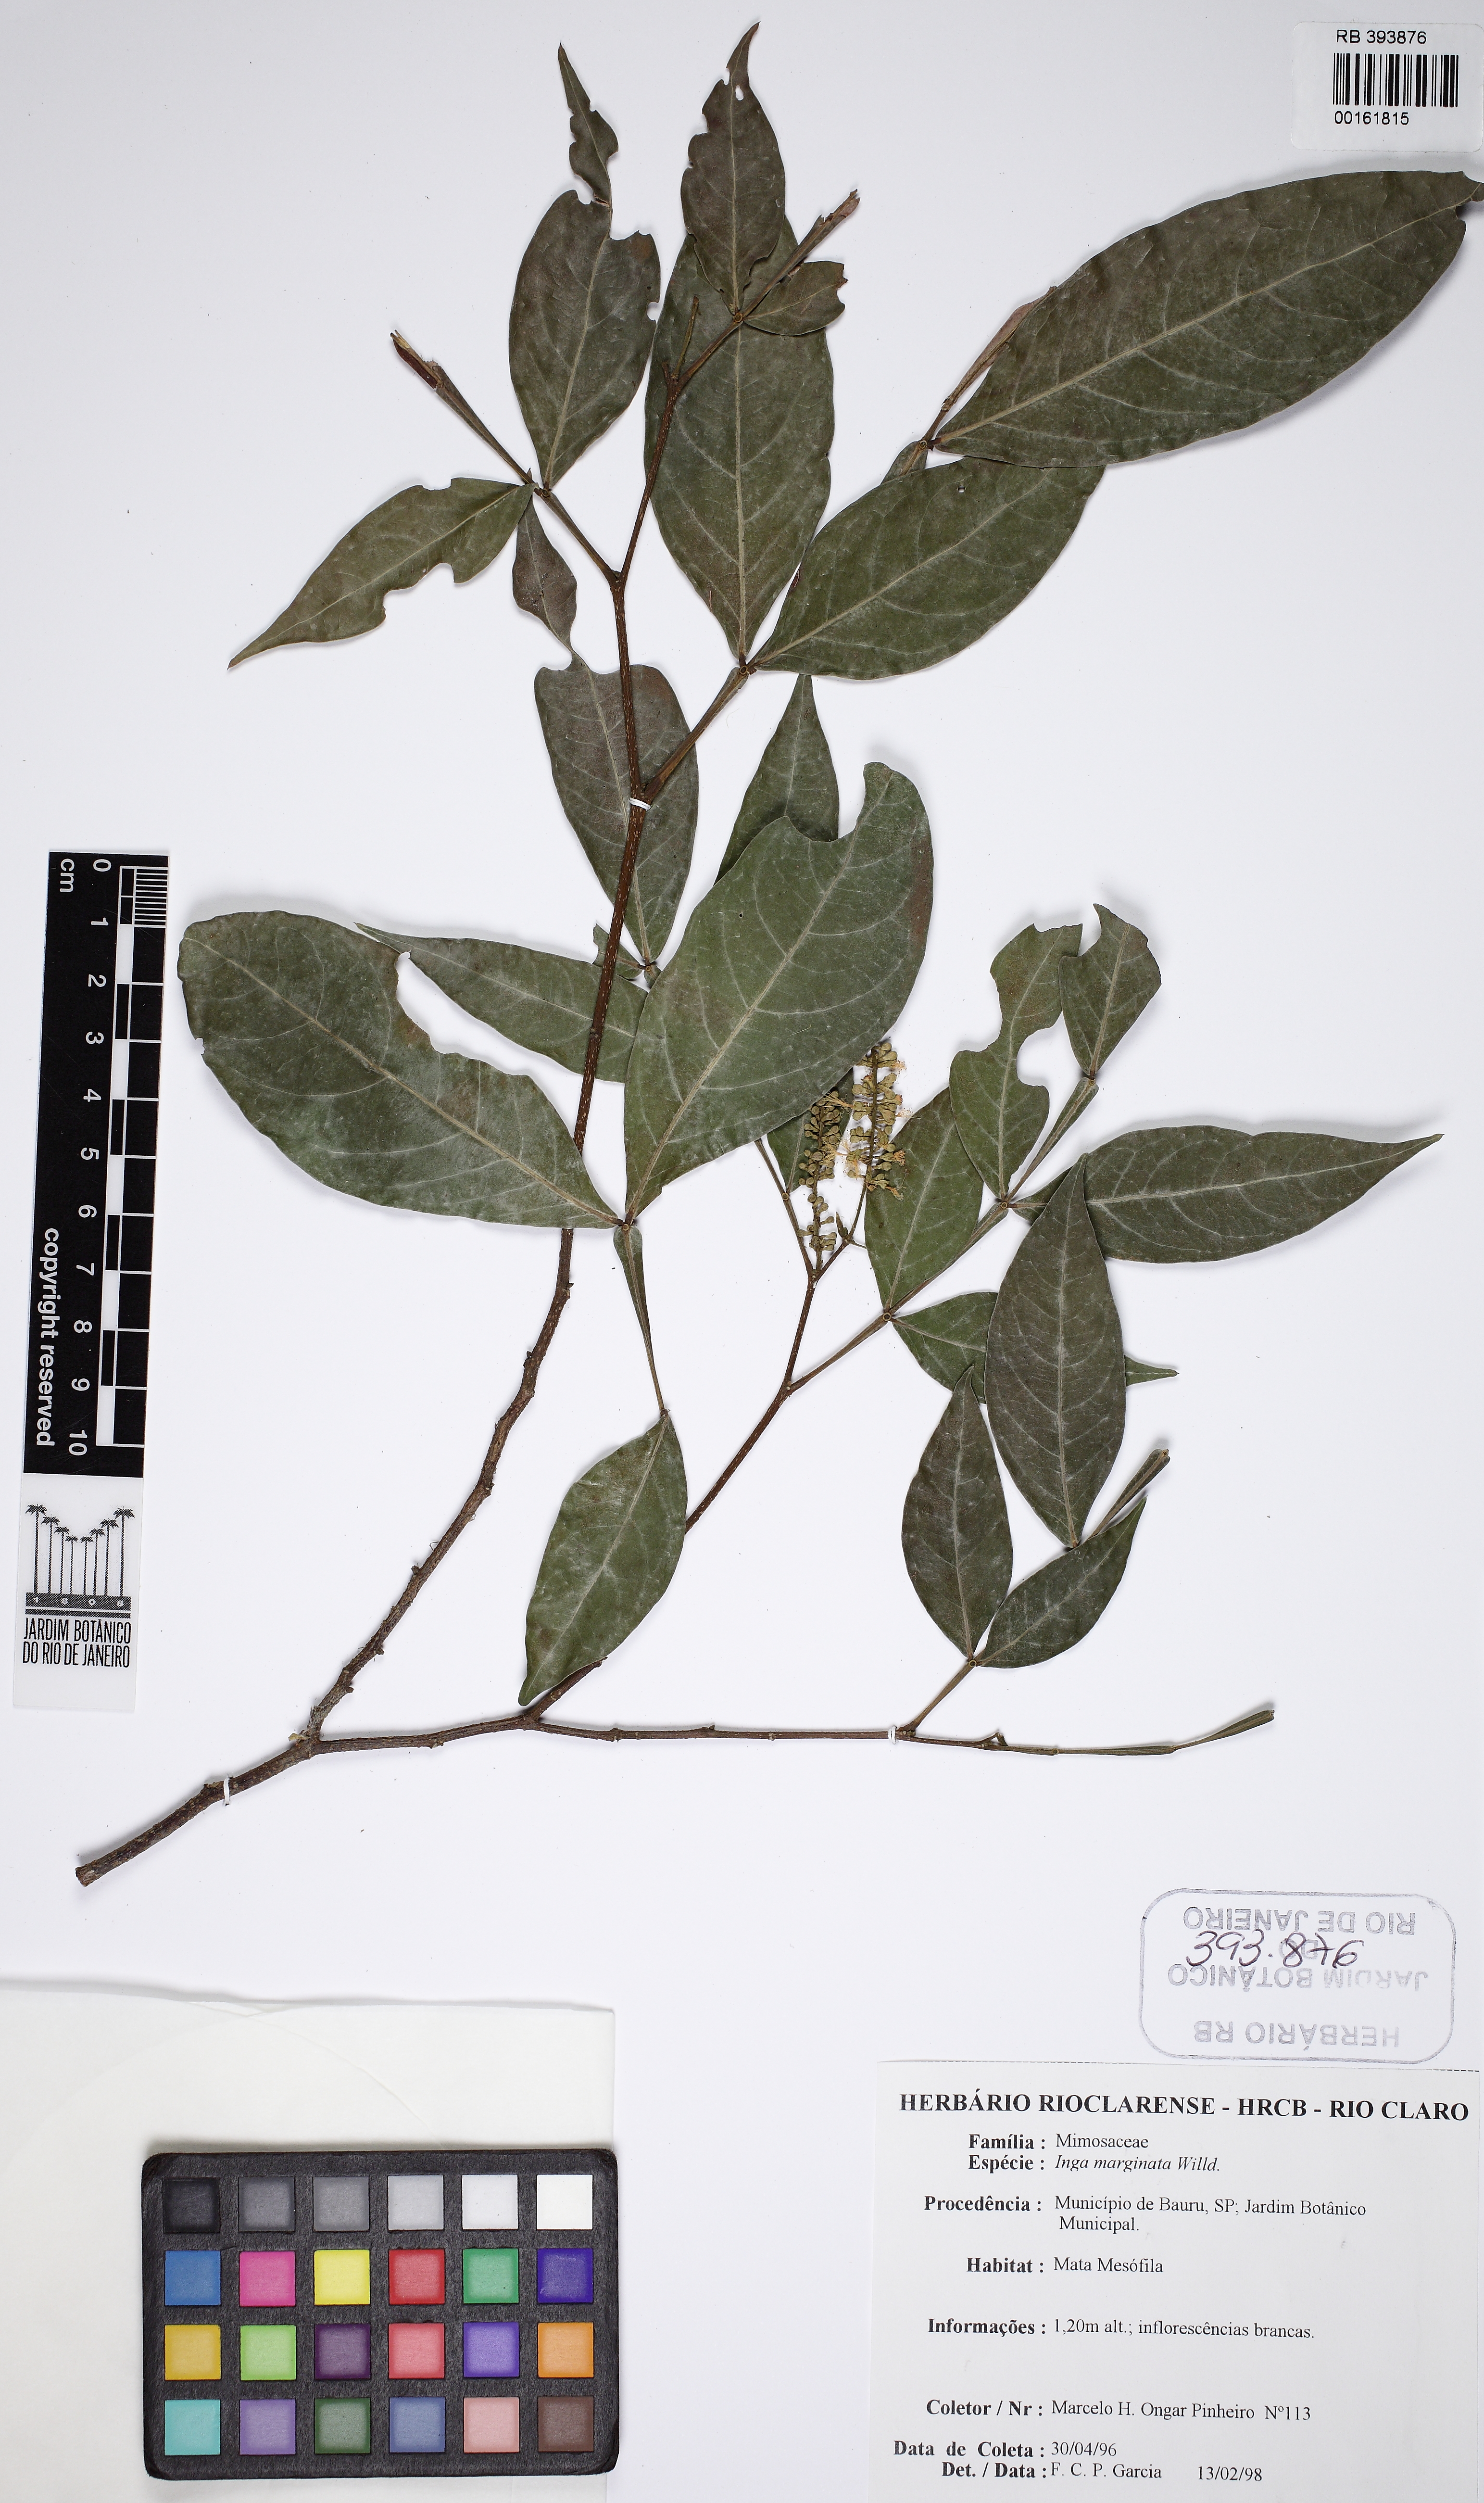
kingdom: Plantae
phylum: Tracheophyta
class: Magnoliopsida
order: Fabales
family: Fabaceae
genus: Inga
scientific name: Inga marginata
